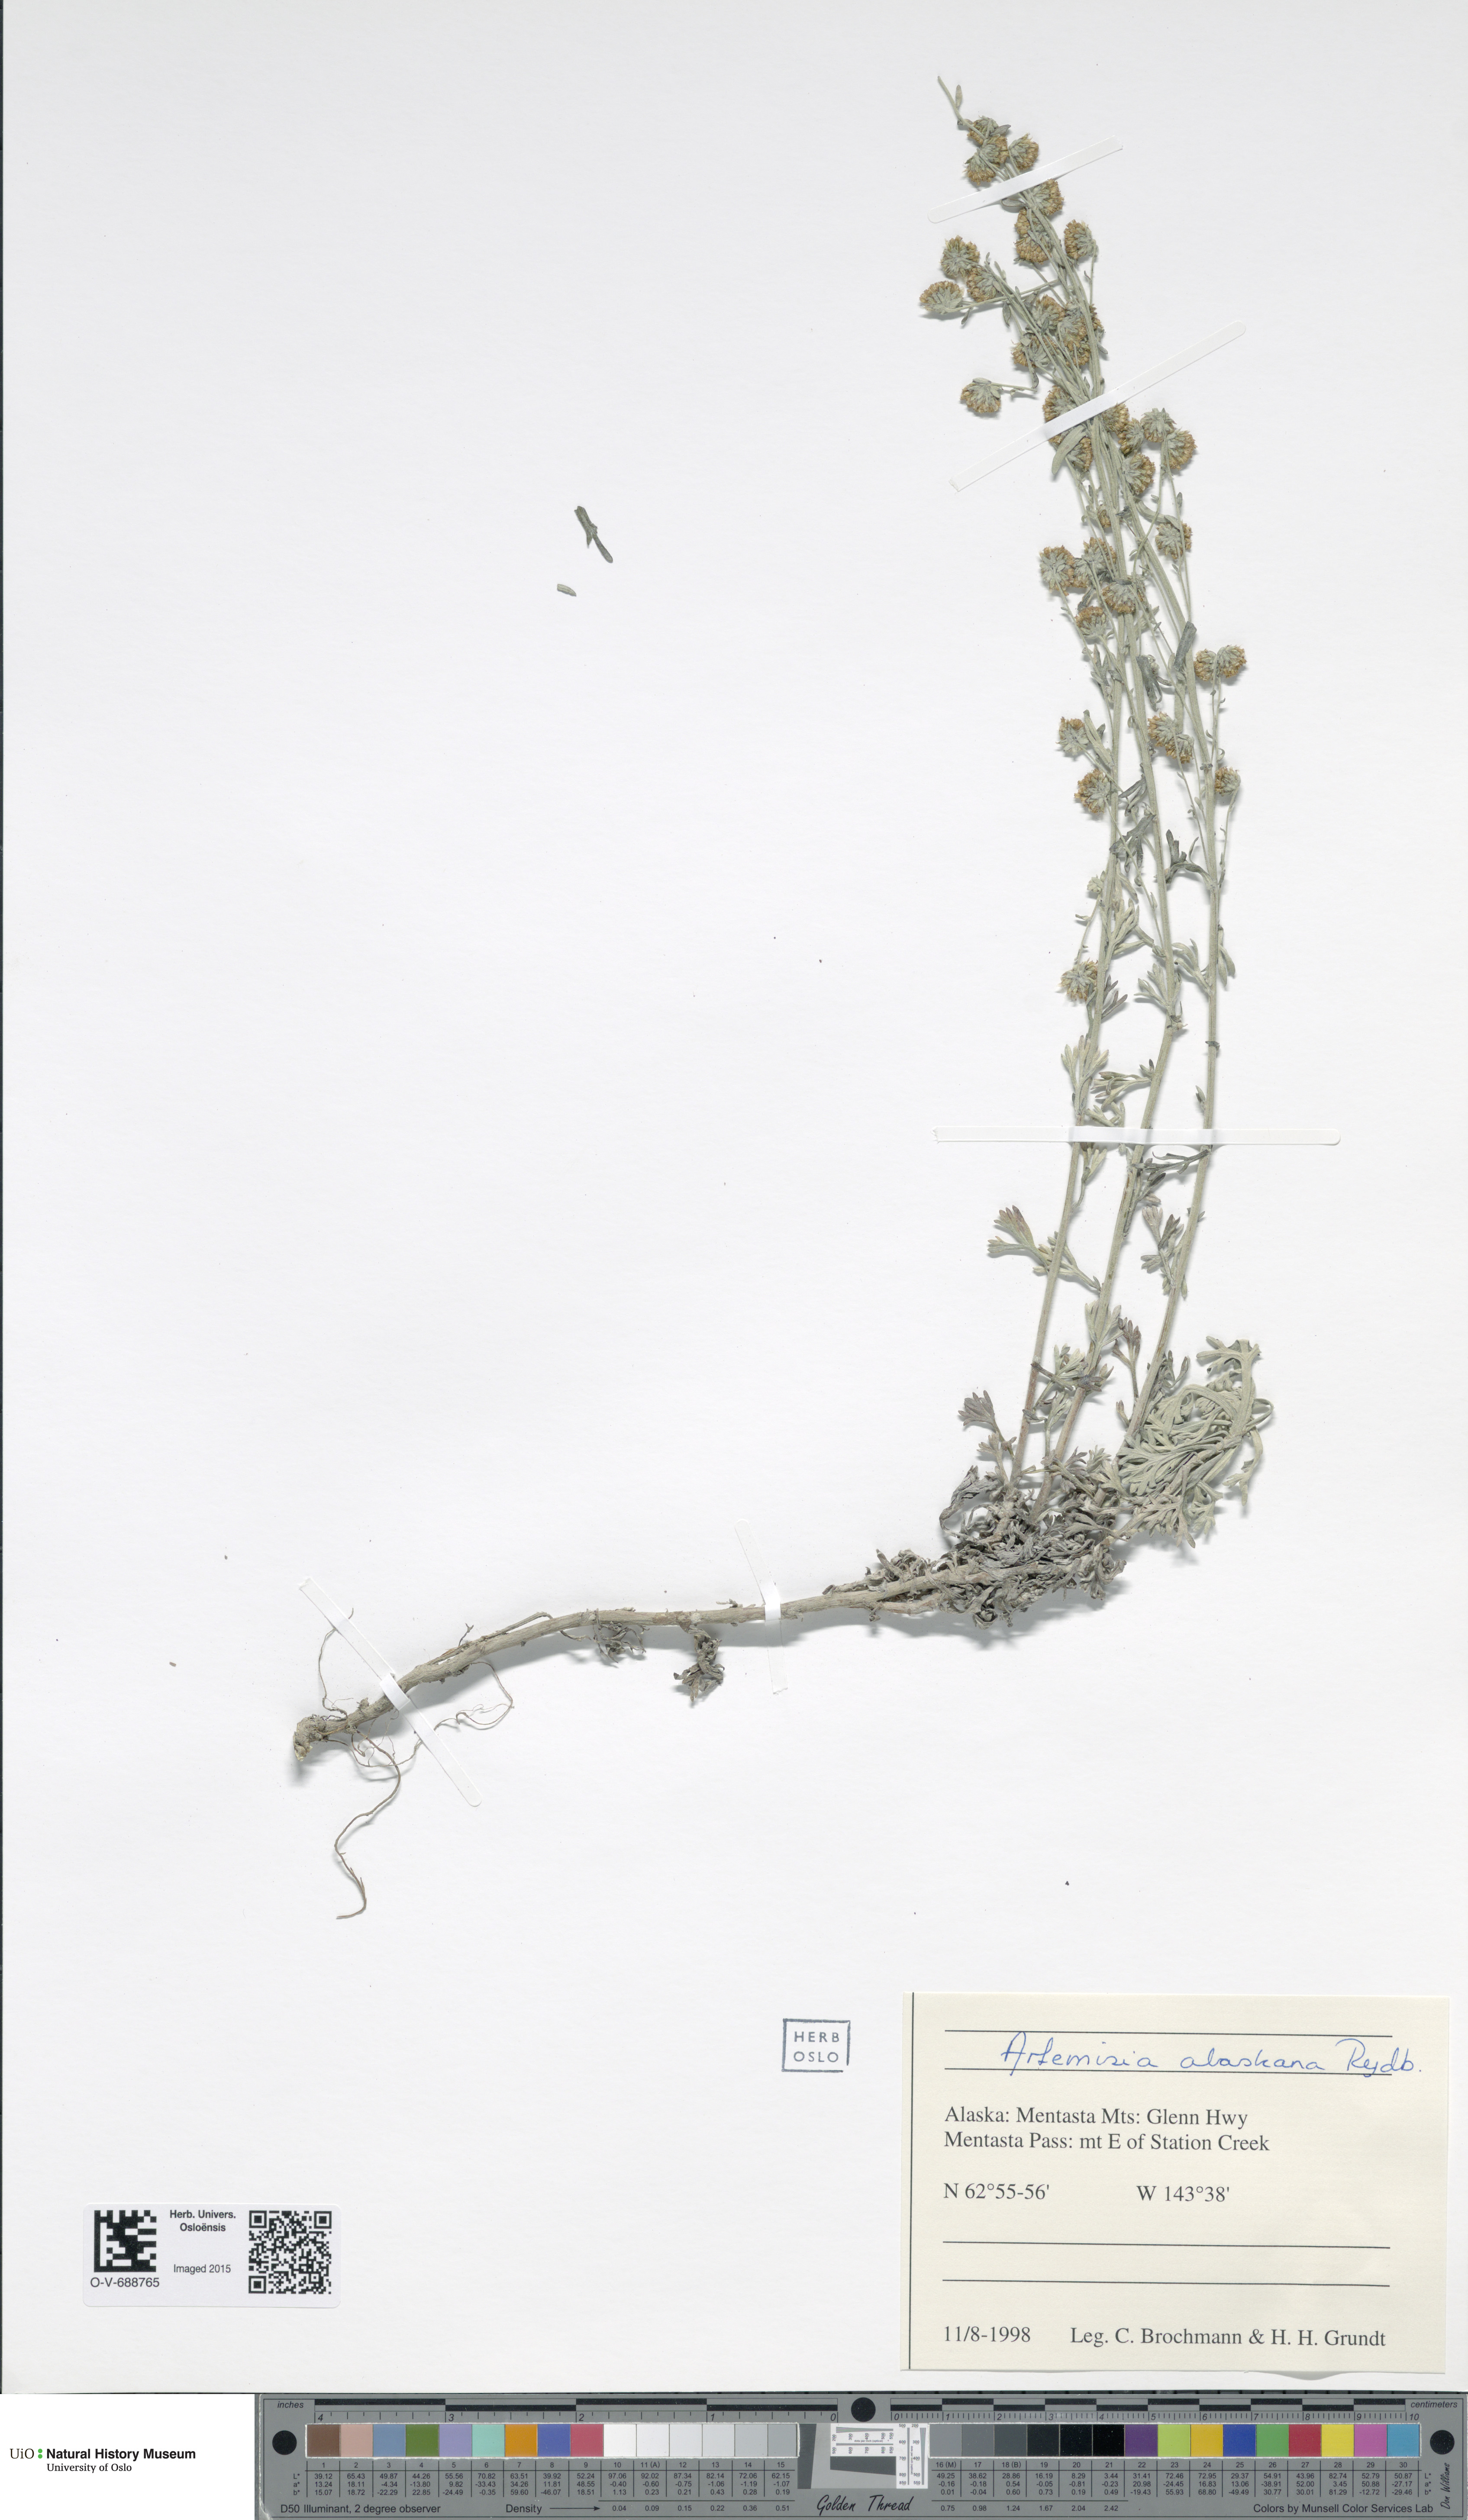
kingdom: Plantae
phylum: Tracheophyta
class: Magnoliopsida
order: Asterales
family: Asteraceae
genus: Artemisia
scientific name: Artemisia kruhsiana
